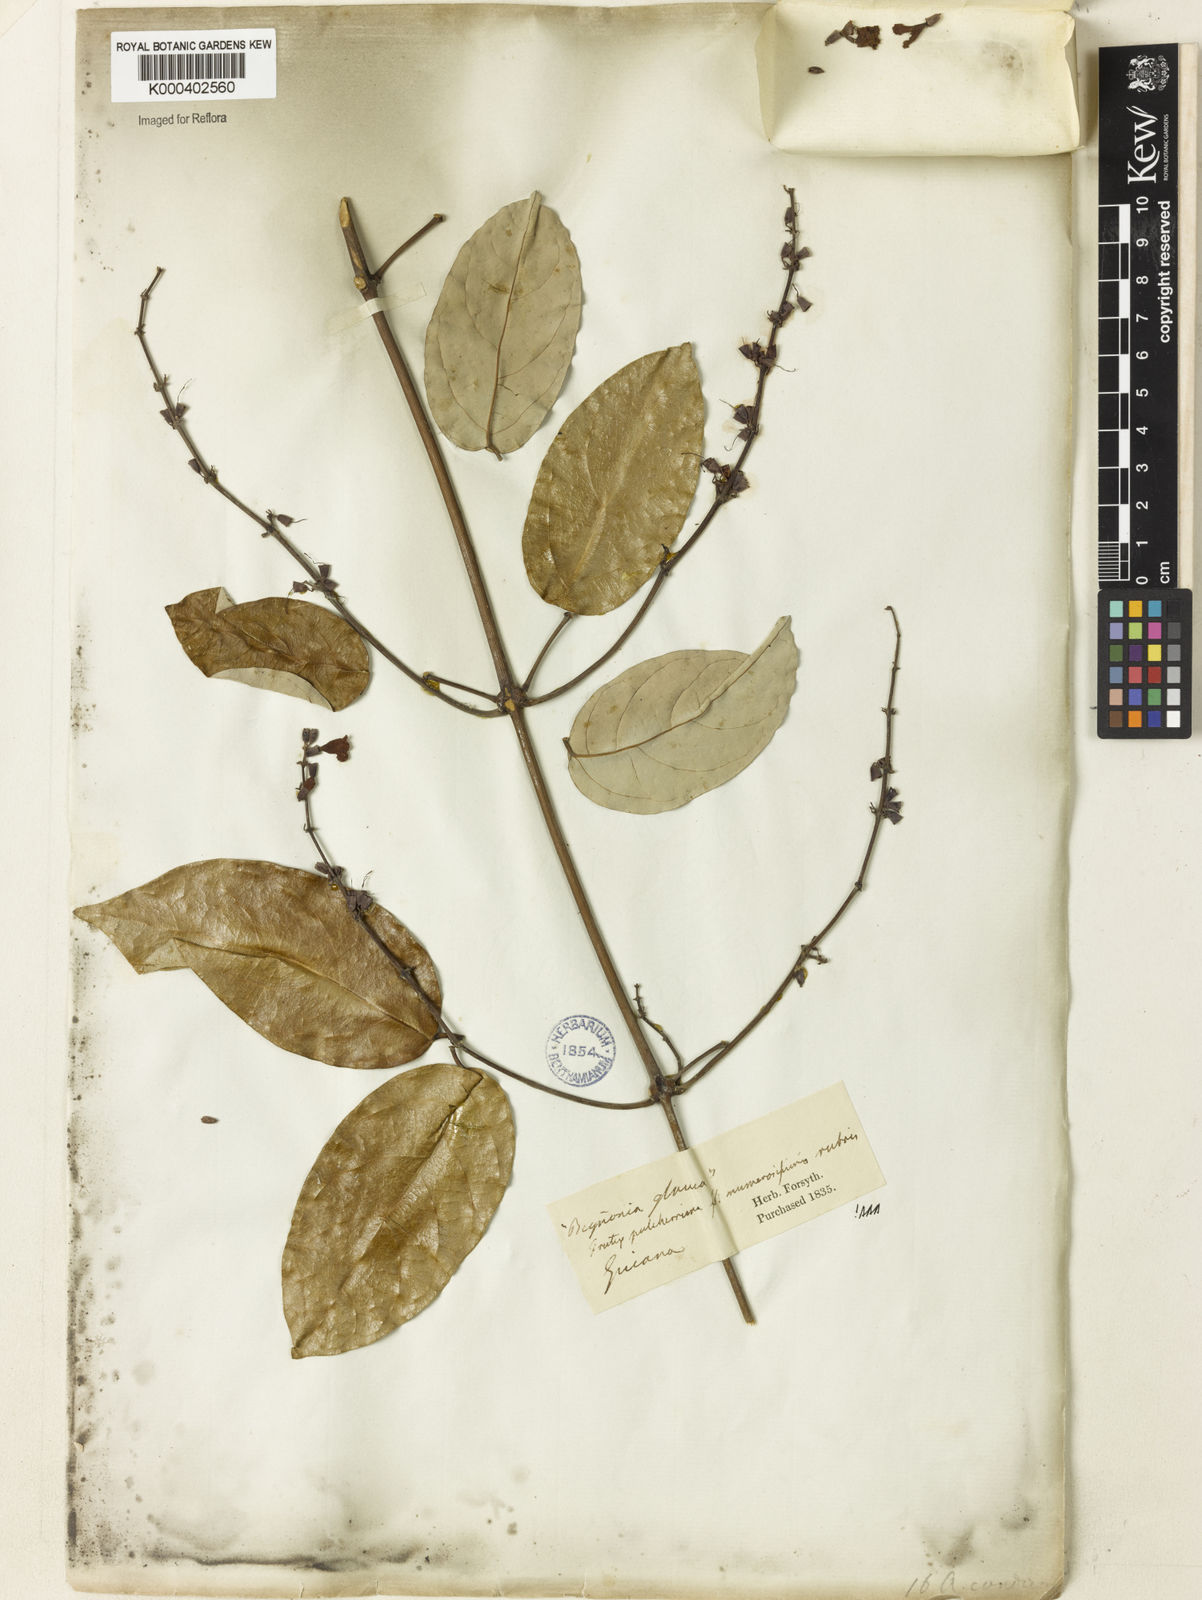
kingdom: Plantae
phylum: Tracheophyta
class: Magnoliopsida
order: Lamiales
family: Bignoniaceae
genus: Fridericia
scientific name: Fridericia candicans
